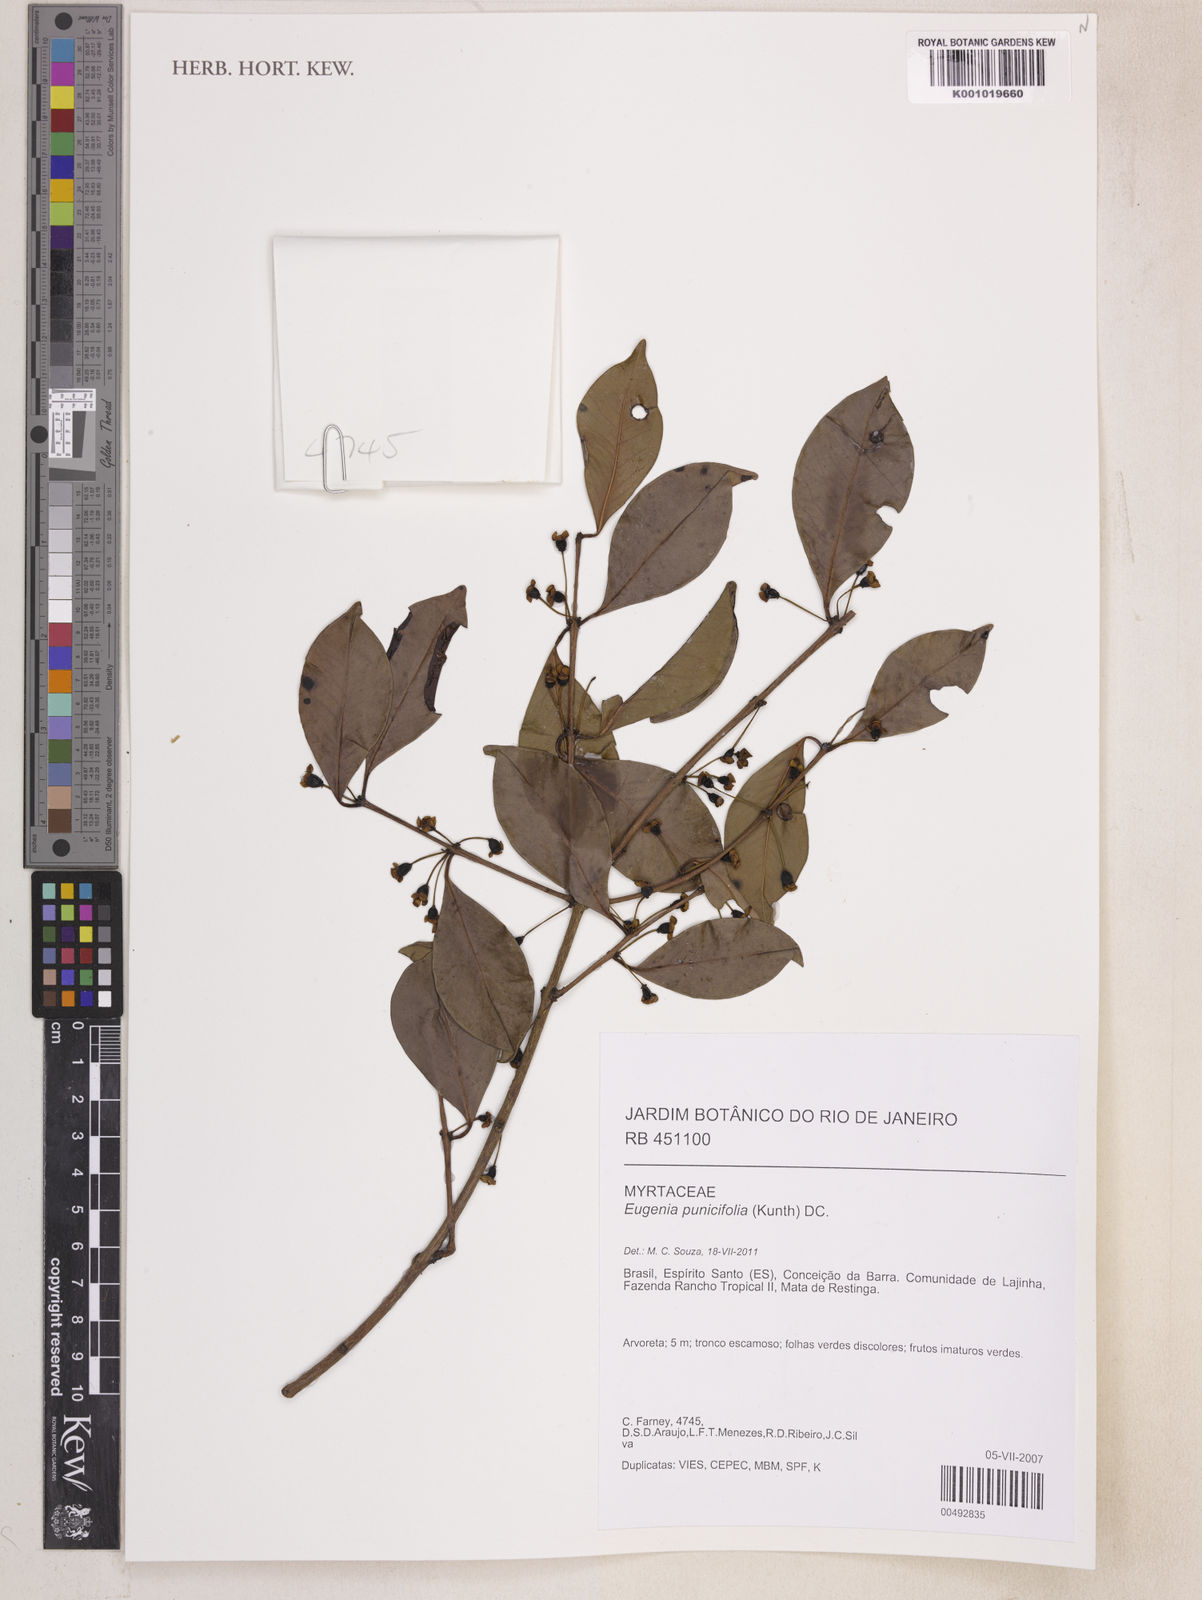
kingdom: Plantae
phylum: Tracheophyta
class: Magnoliopsida
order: Myrtales
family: Myrtaceae
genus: Eugenia
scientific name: Eugenia punicifolia
